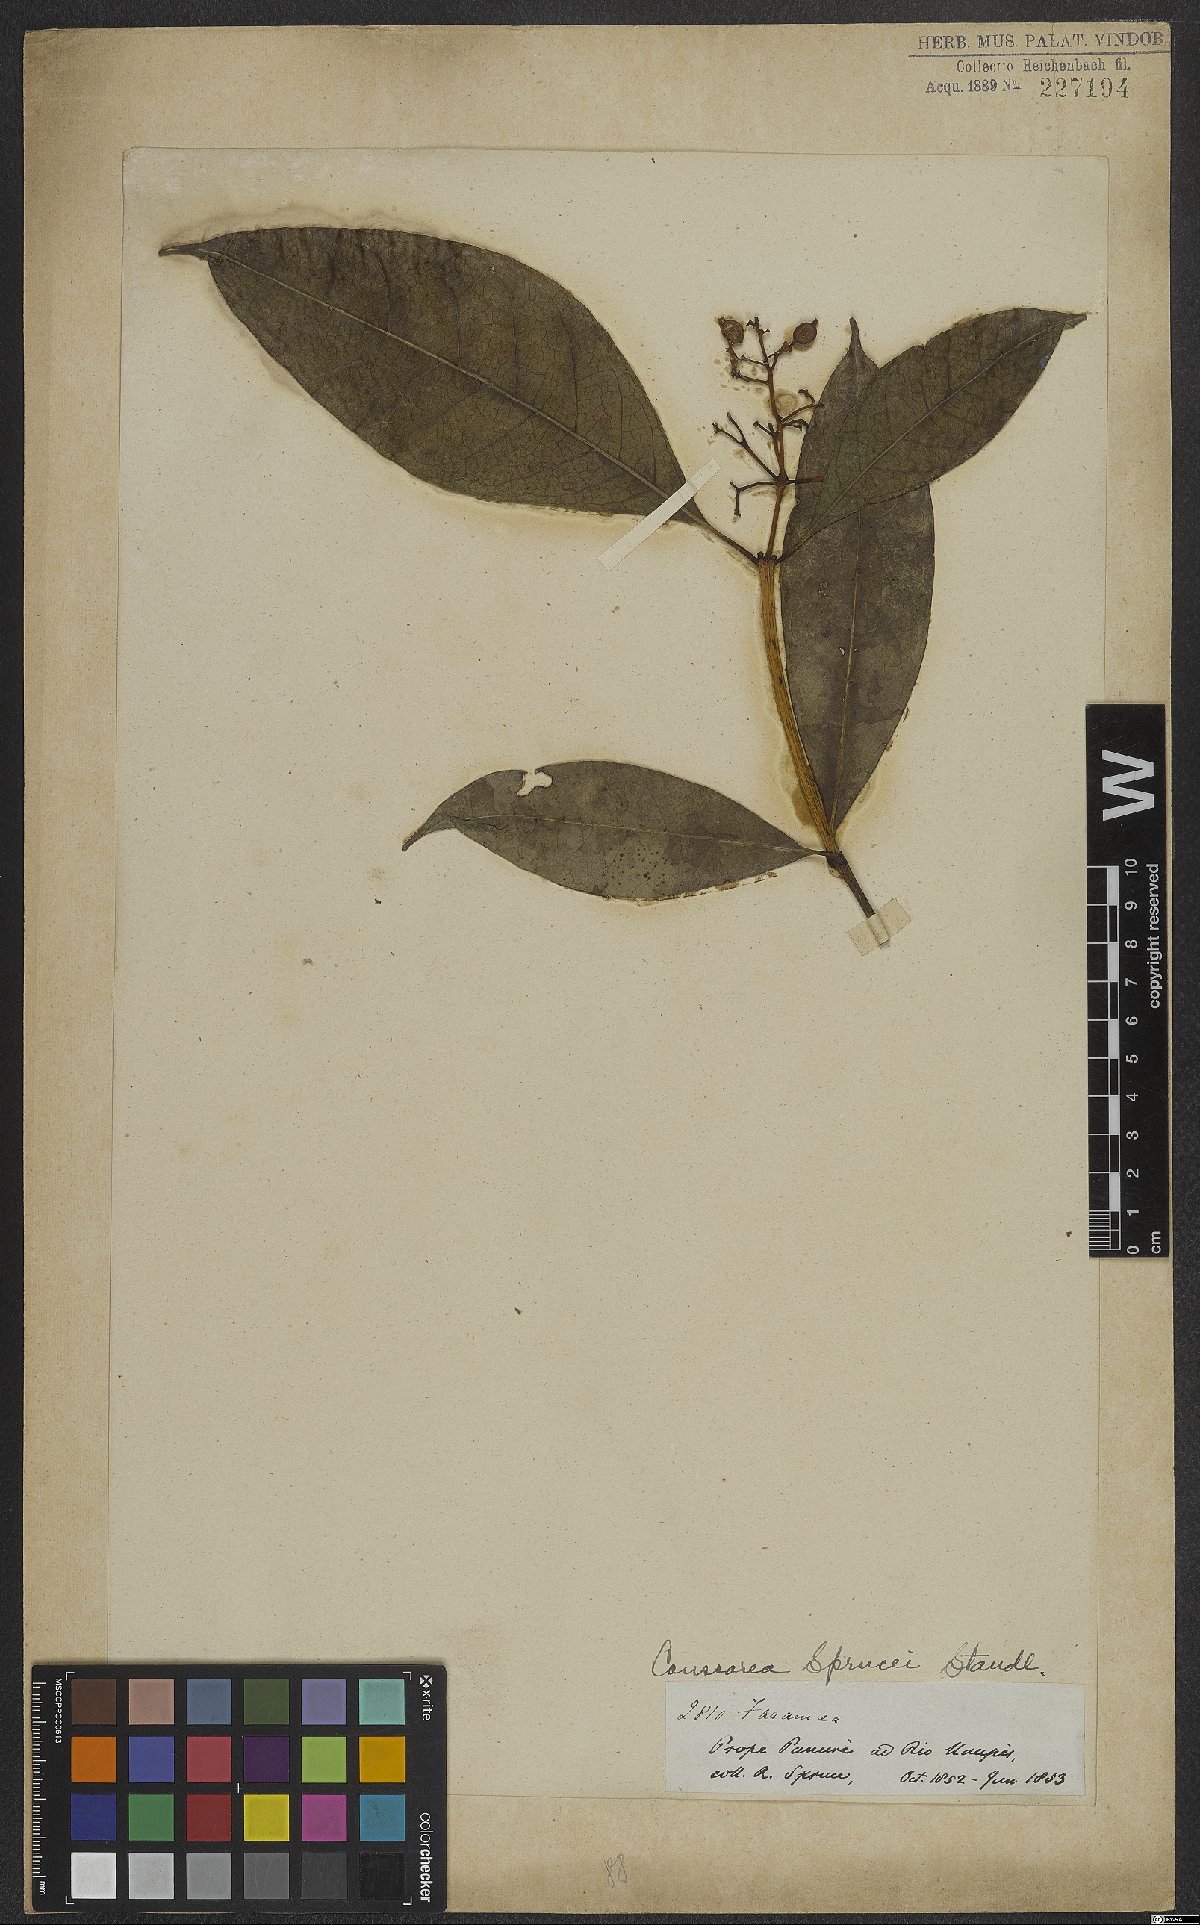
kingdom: Plantae
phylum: Tracheophyta
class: Magnoliopsida
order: Gentianales
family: Rubiaceae
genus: Coussarea
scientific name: Coussarea violacea
